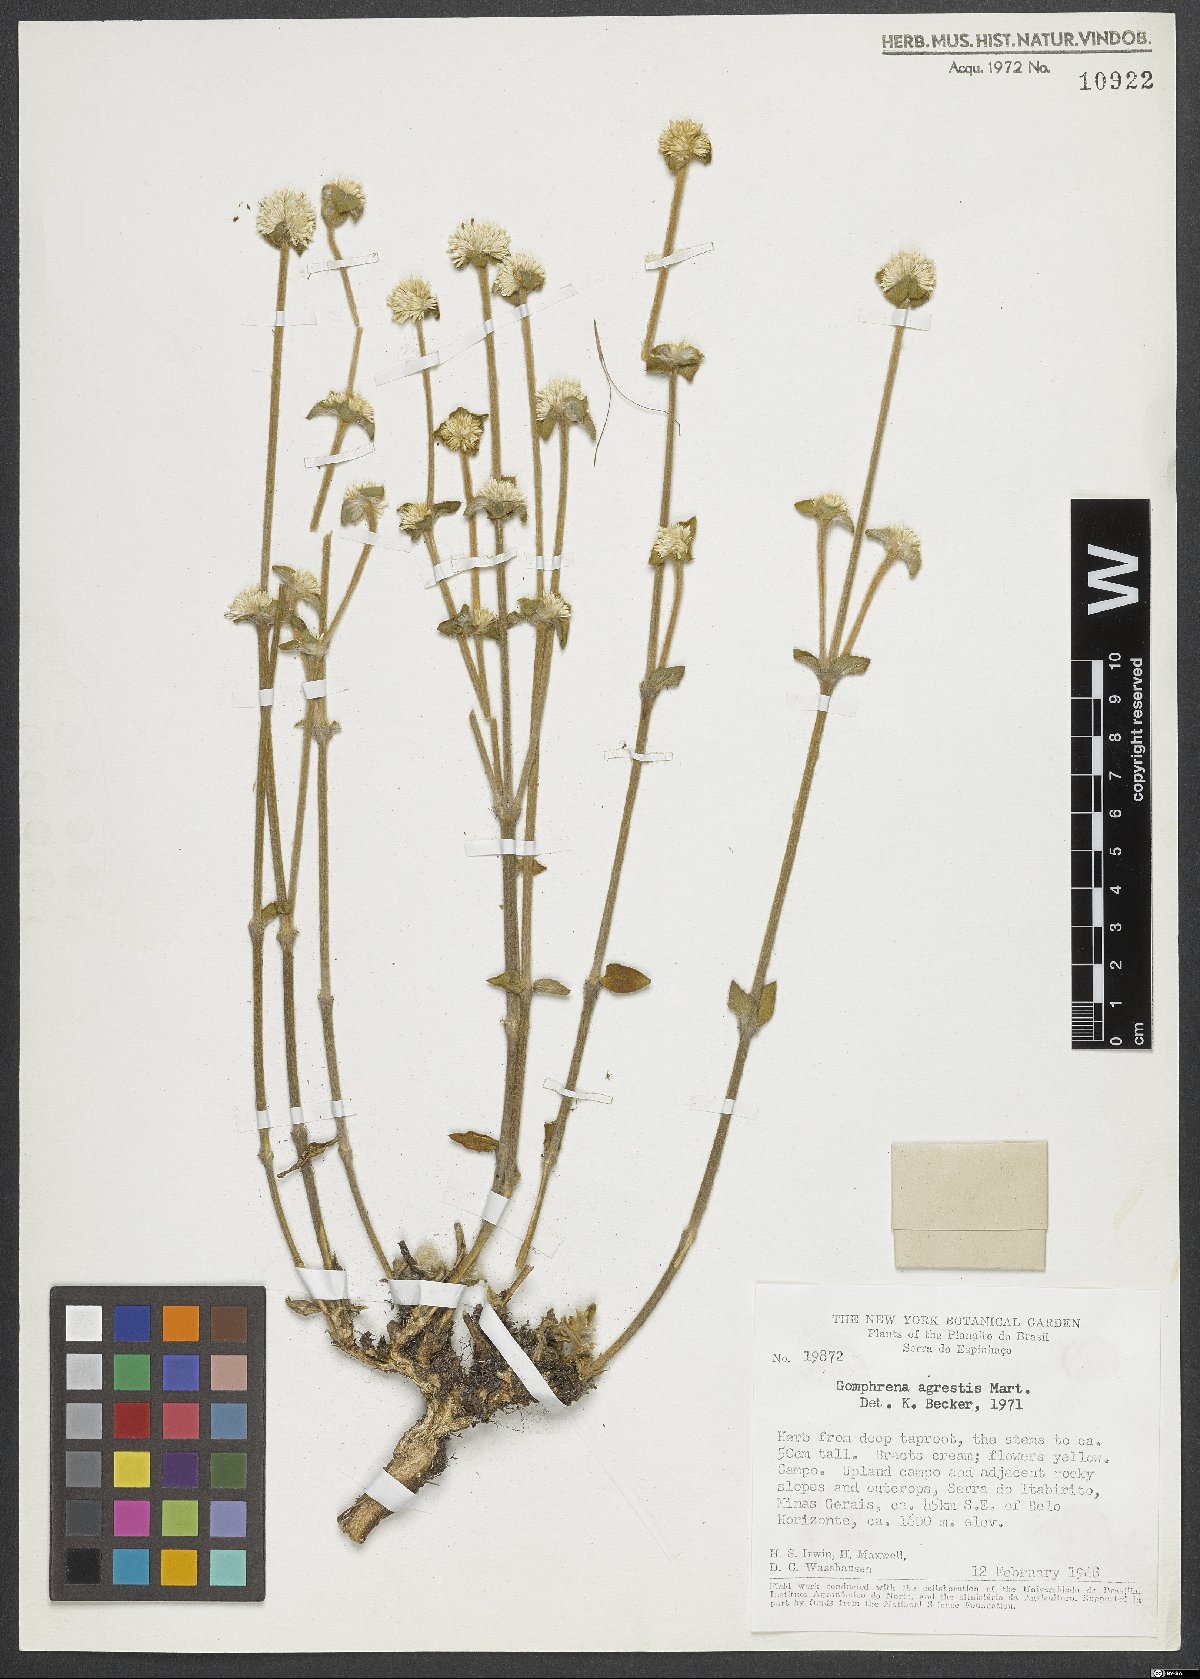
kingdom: Plantae
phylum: Tracheophyta
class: Magnoliopsida
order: Caryophyllales
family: Amaranthaceae
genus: Gomphrena
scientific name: Gomphrena agrestis
